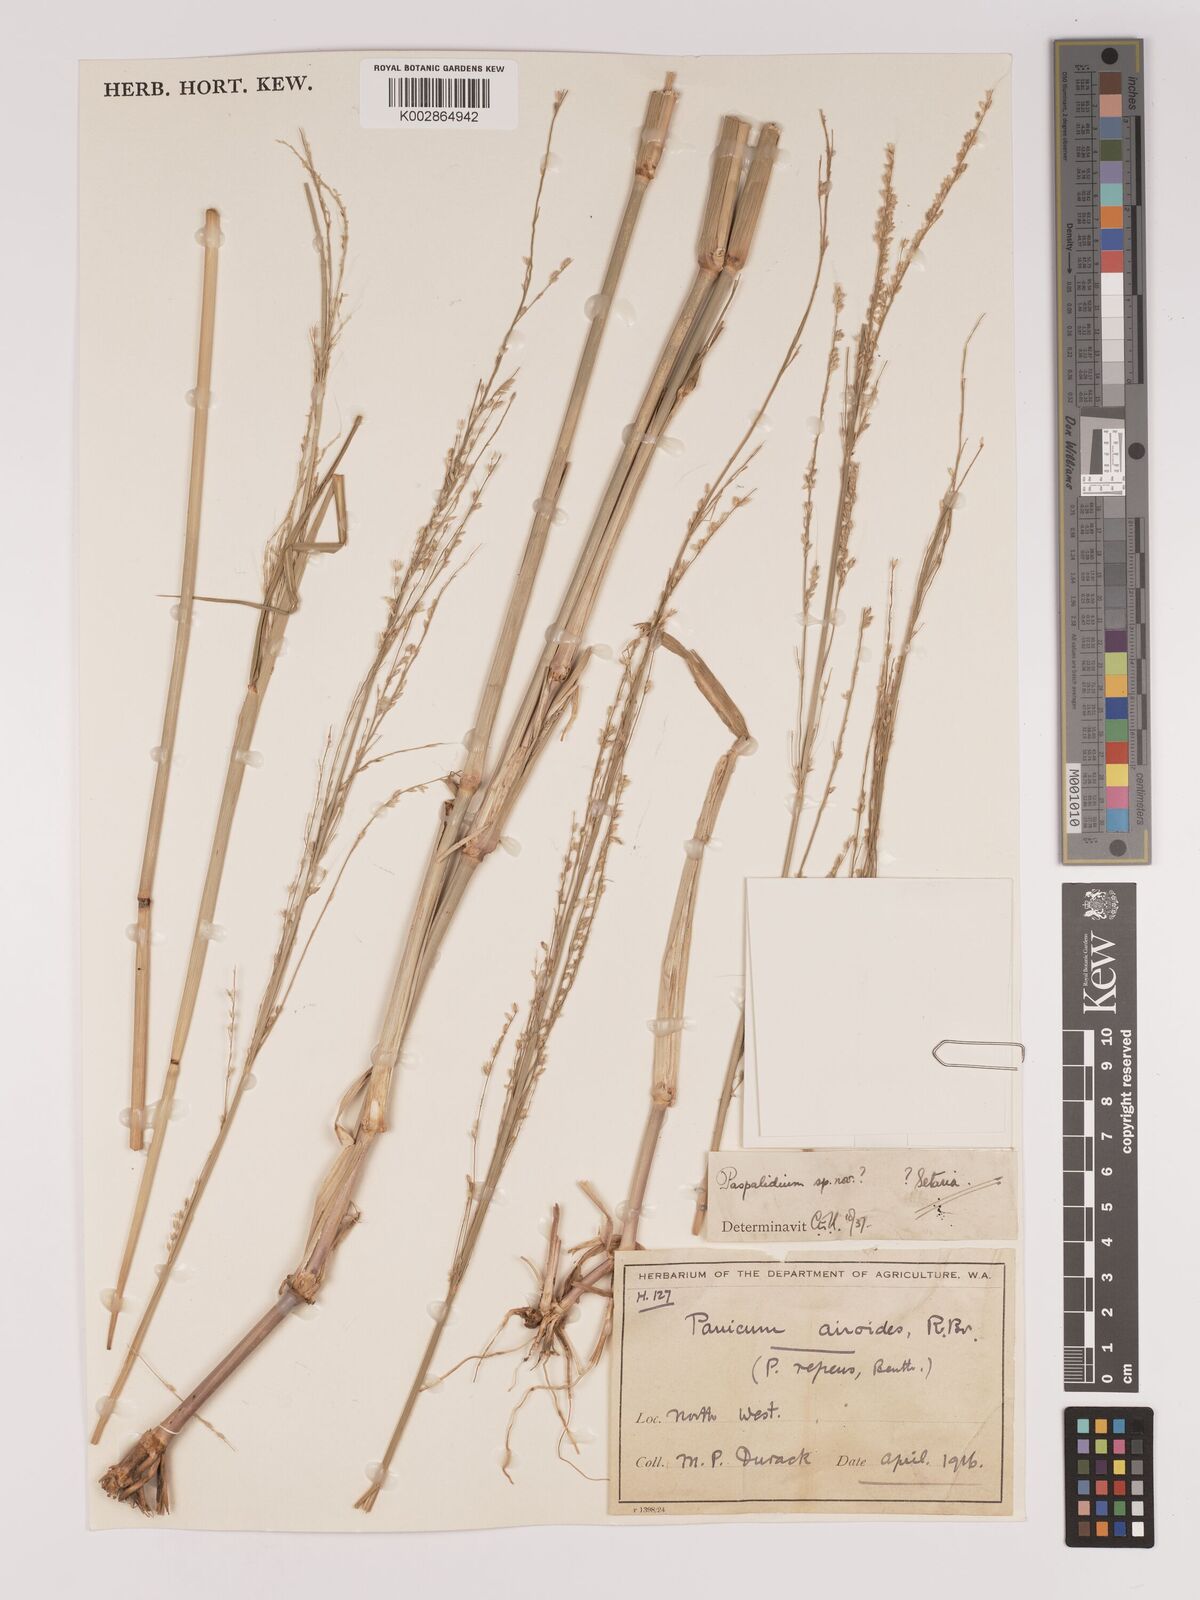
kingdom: Plantae
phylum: Tracheophyta
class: Liliopsida
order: Poales
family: Poaceae
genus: Setaria
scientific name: Setaria
